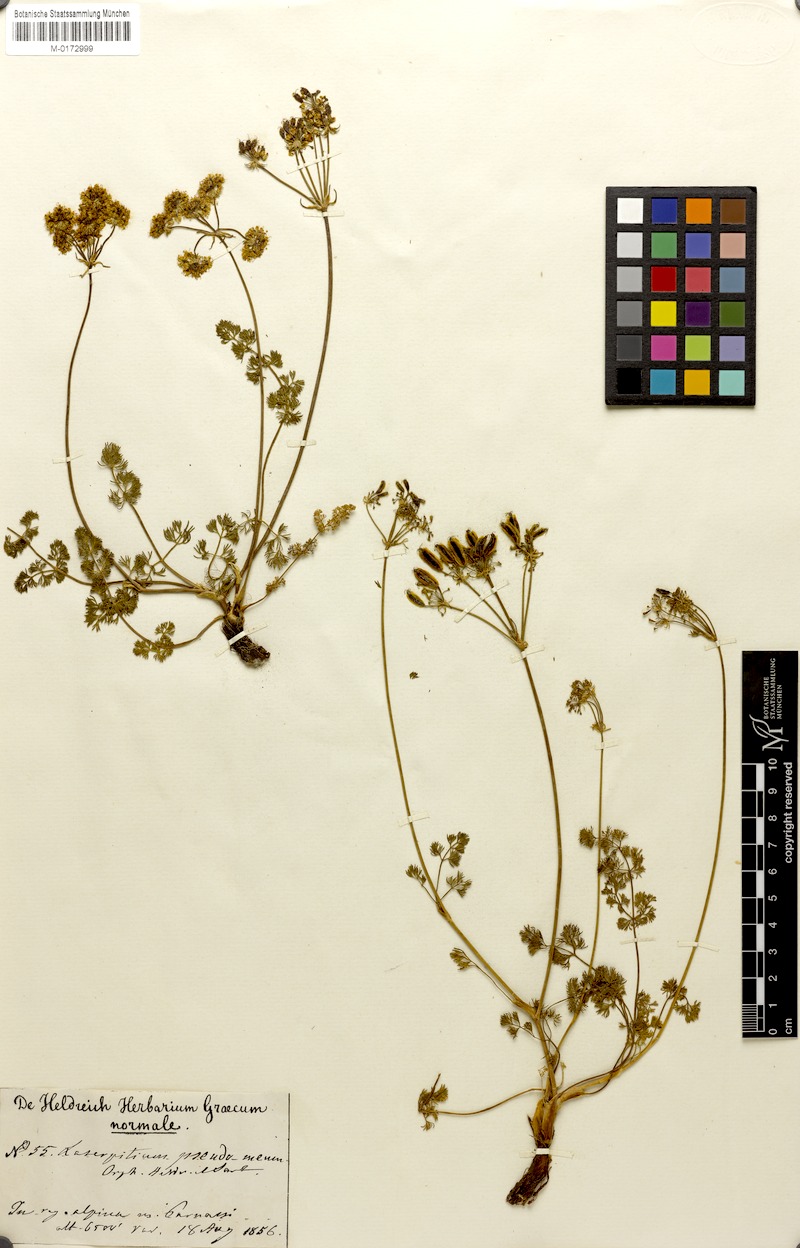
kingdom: Plantae
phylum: Tracheophyta
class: Magnoliopsida
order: Apiales
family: Apiaceae
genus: Laserocarpum
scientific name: Laserocarpum pseudomeum
